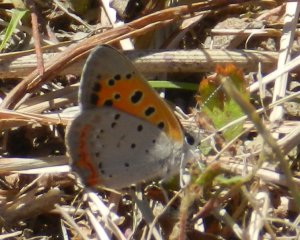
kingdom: Animalia
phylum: Arthropoda
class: Insecta
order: Lepidoptera
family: Lycaenidae
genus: Lycaena
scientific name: Lycaena phlaeas
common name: American Copper
